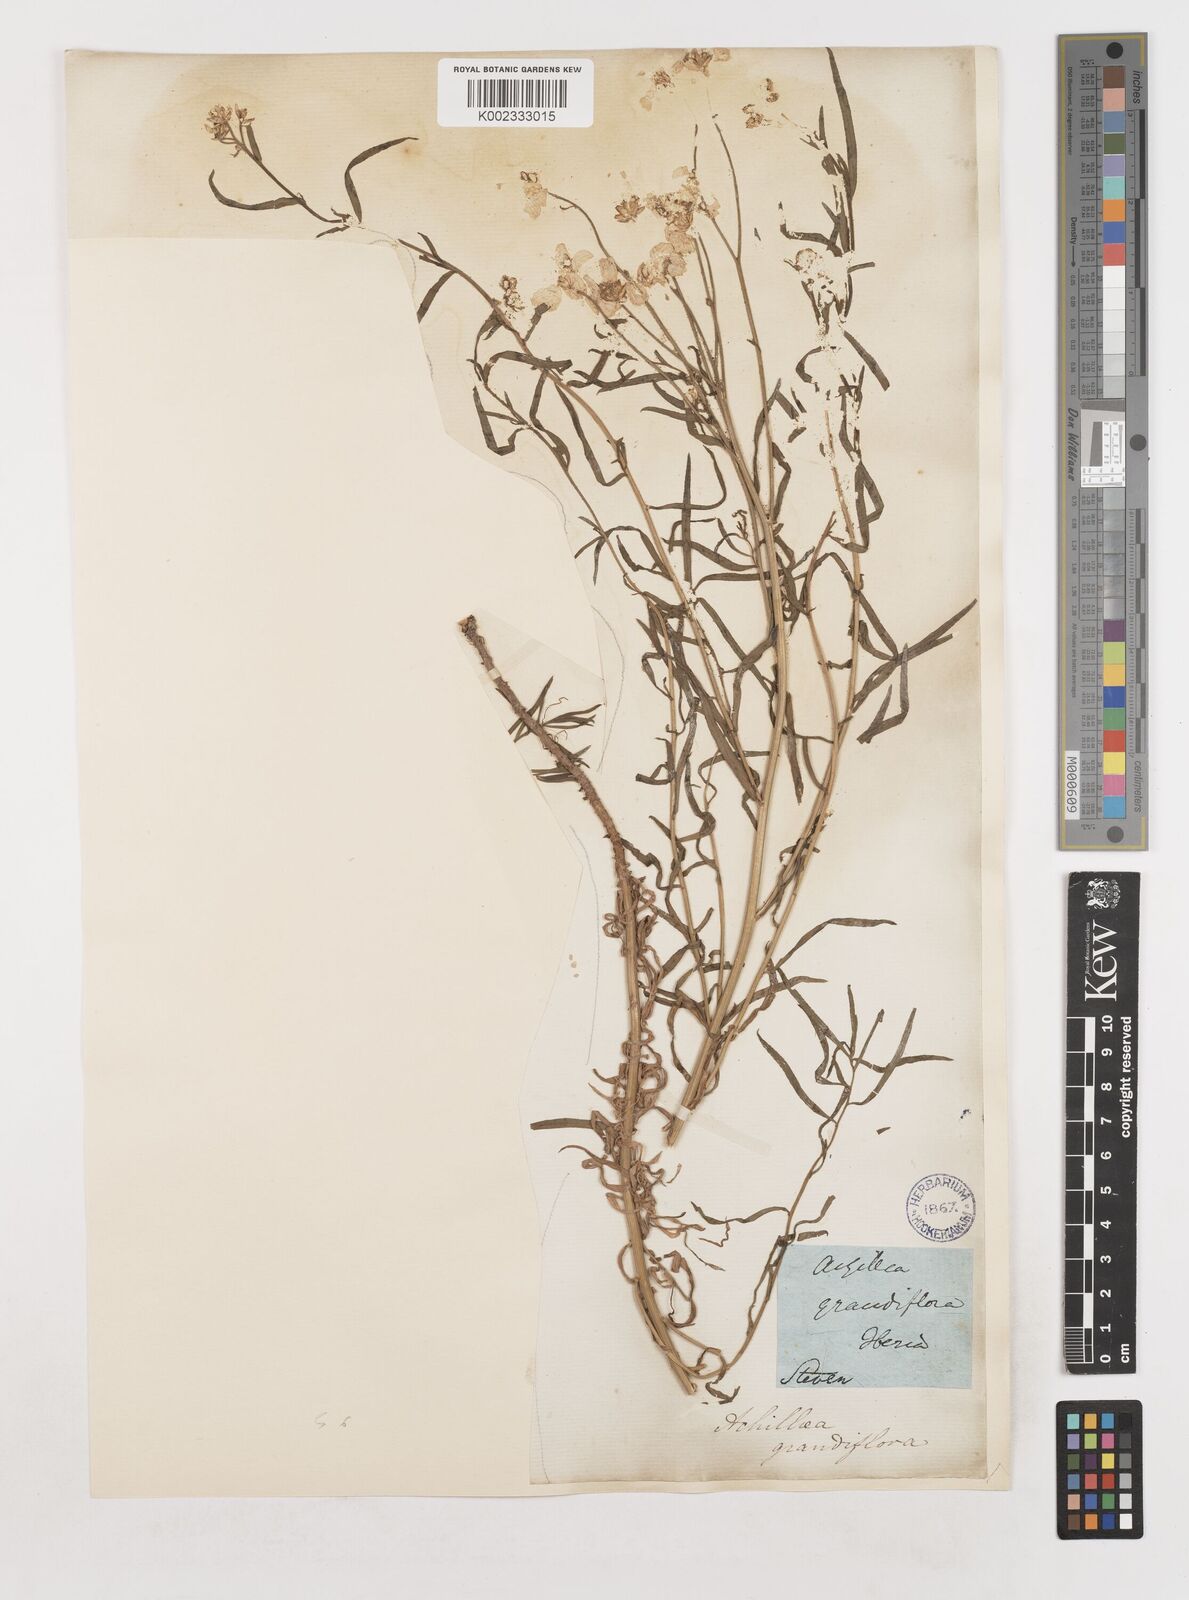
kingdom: Plantae
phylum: Tracheophyta
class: Magnoliopsida
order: Asterales
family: Asteraceae
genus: Achillea
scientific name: Achillea ptarmicifolia
